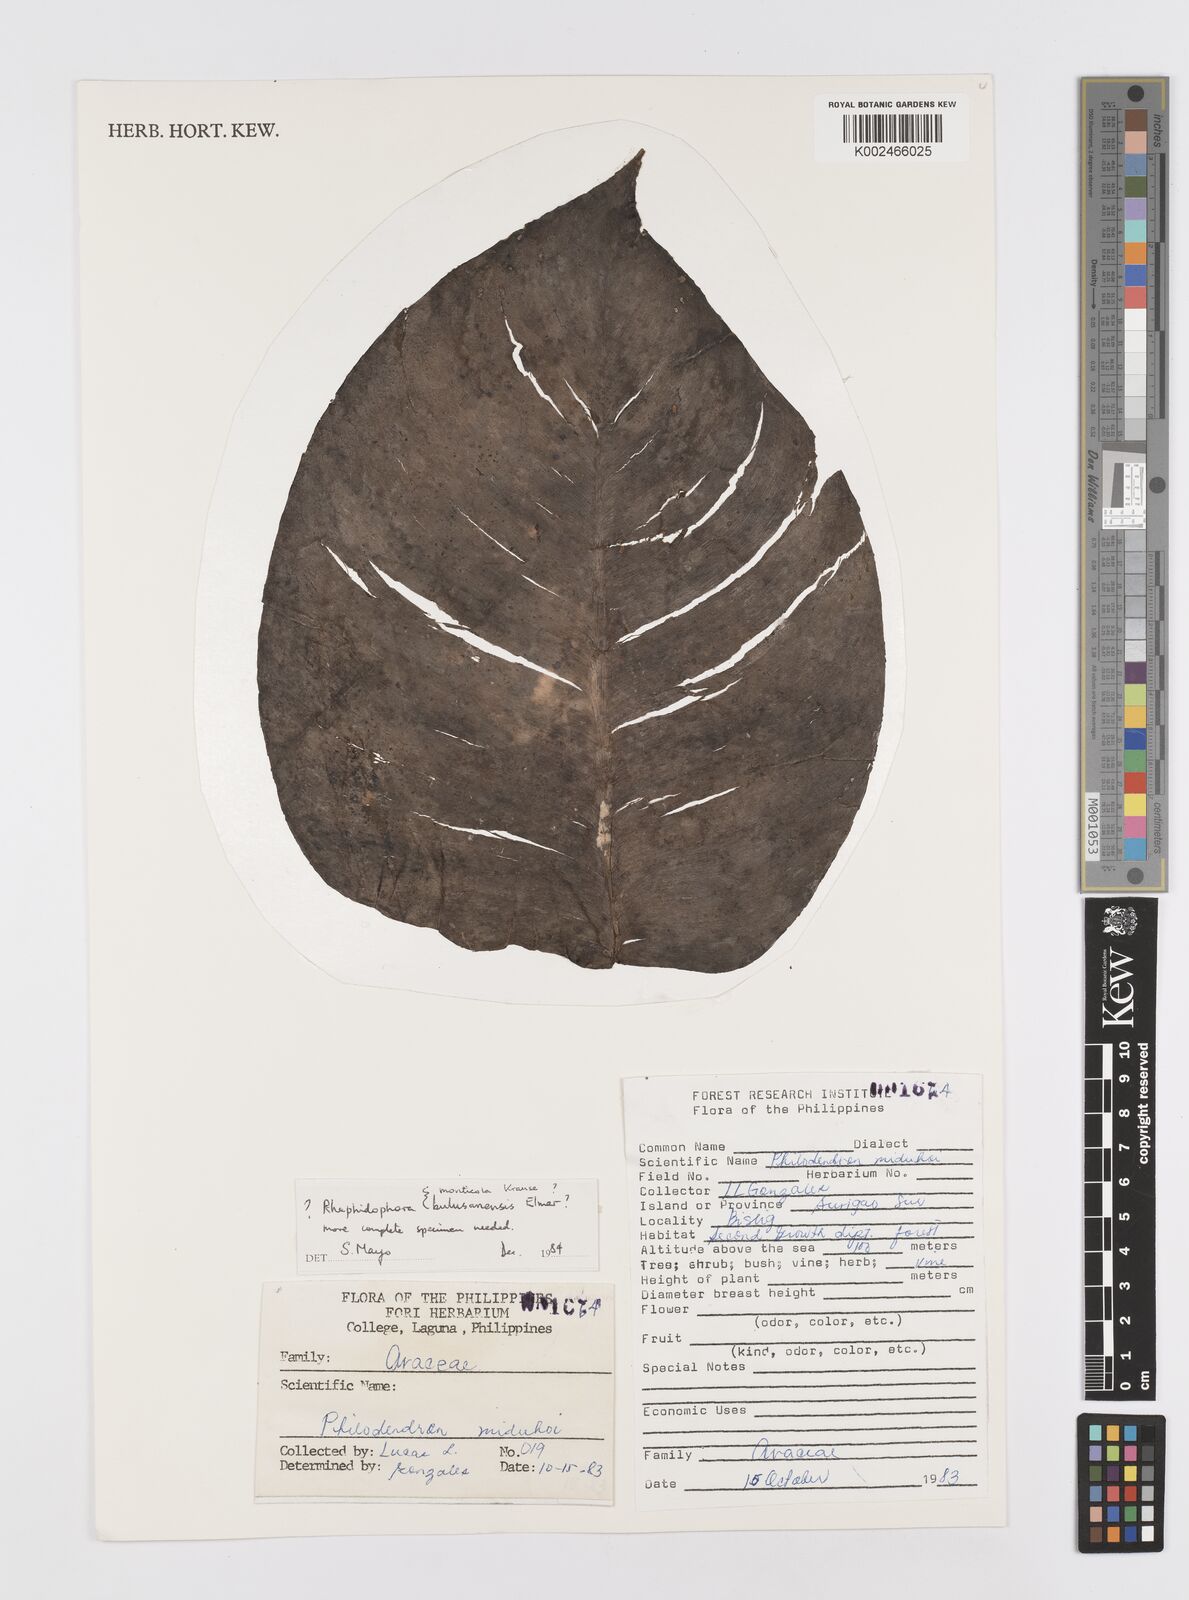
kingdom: Plantae
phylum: Tracheophyta
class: Liliopsida
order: Alismatales
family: Araceae
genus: Rhaphidophora
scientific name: Rhaphidophora philippinensis
